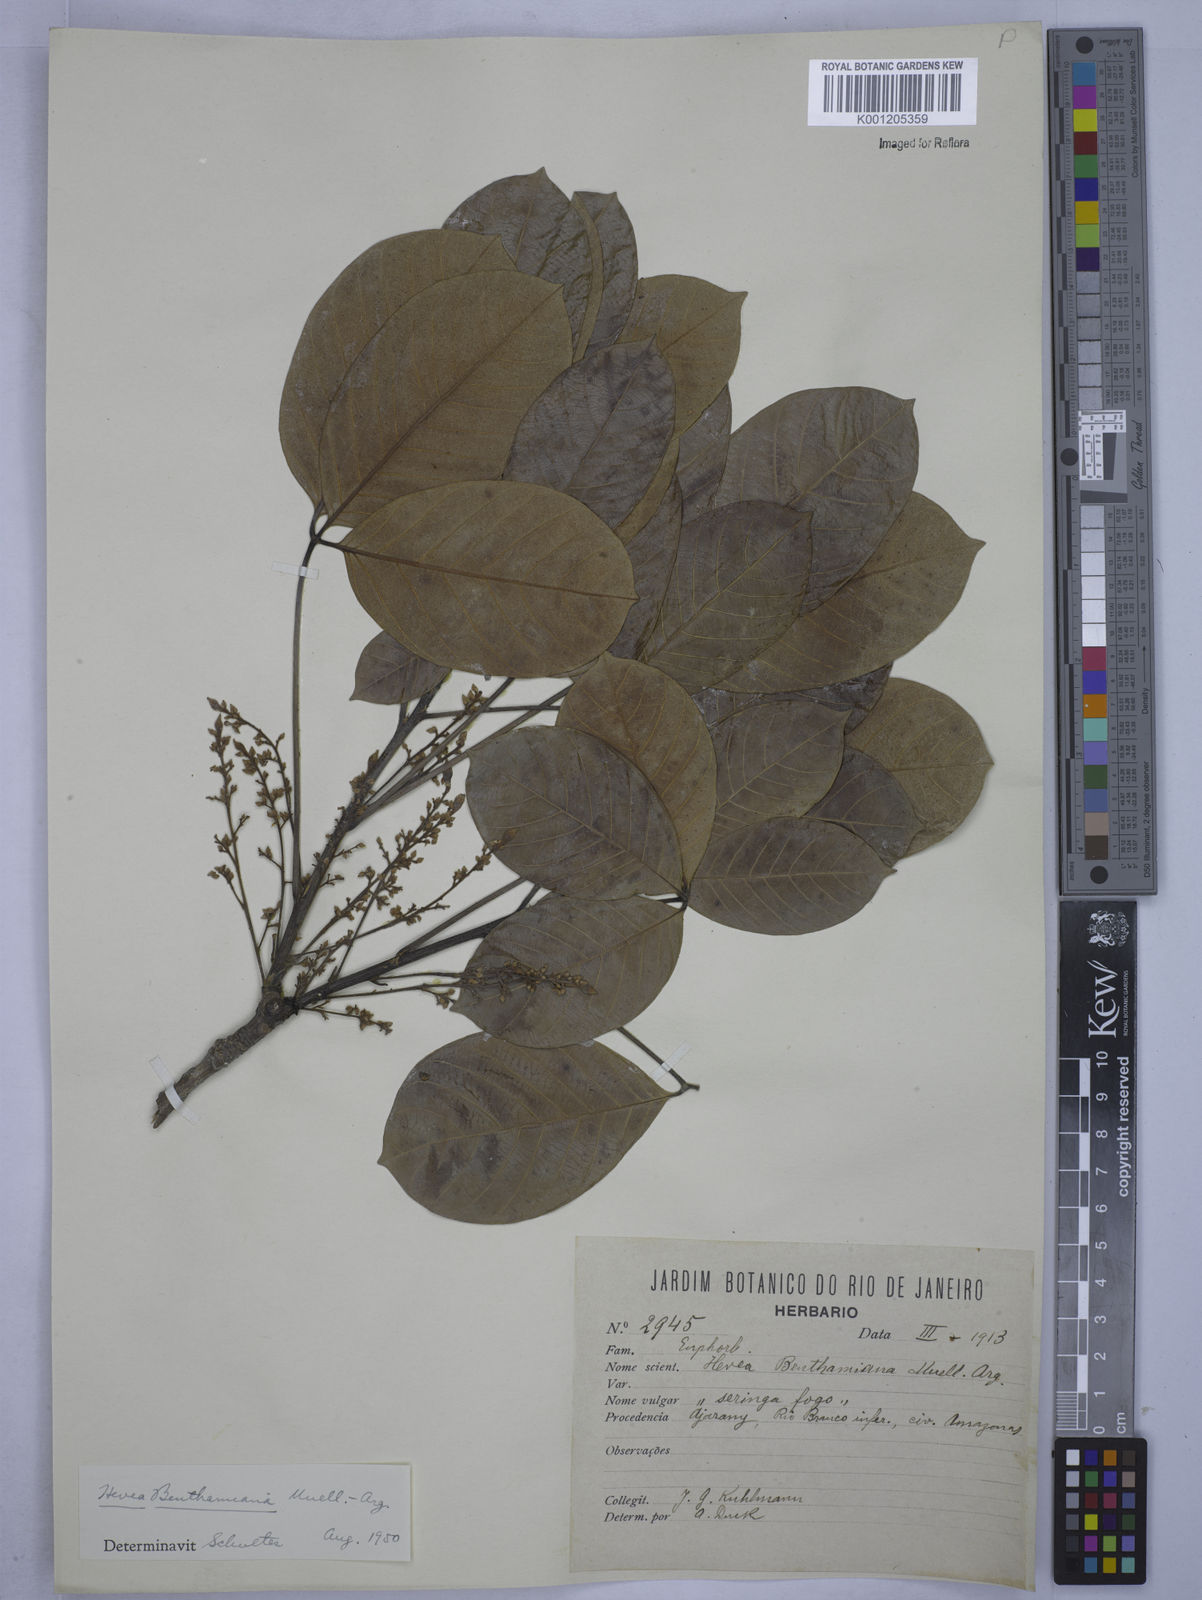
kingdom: Plantae
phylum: Tracheophyta
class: Magnoliopsida
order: Malpighiales
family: Euphorbiaceae
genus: Hevea
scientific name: Hevea
